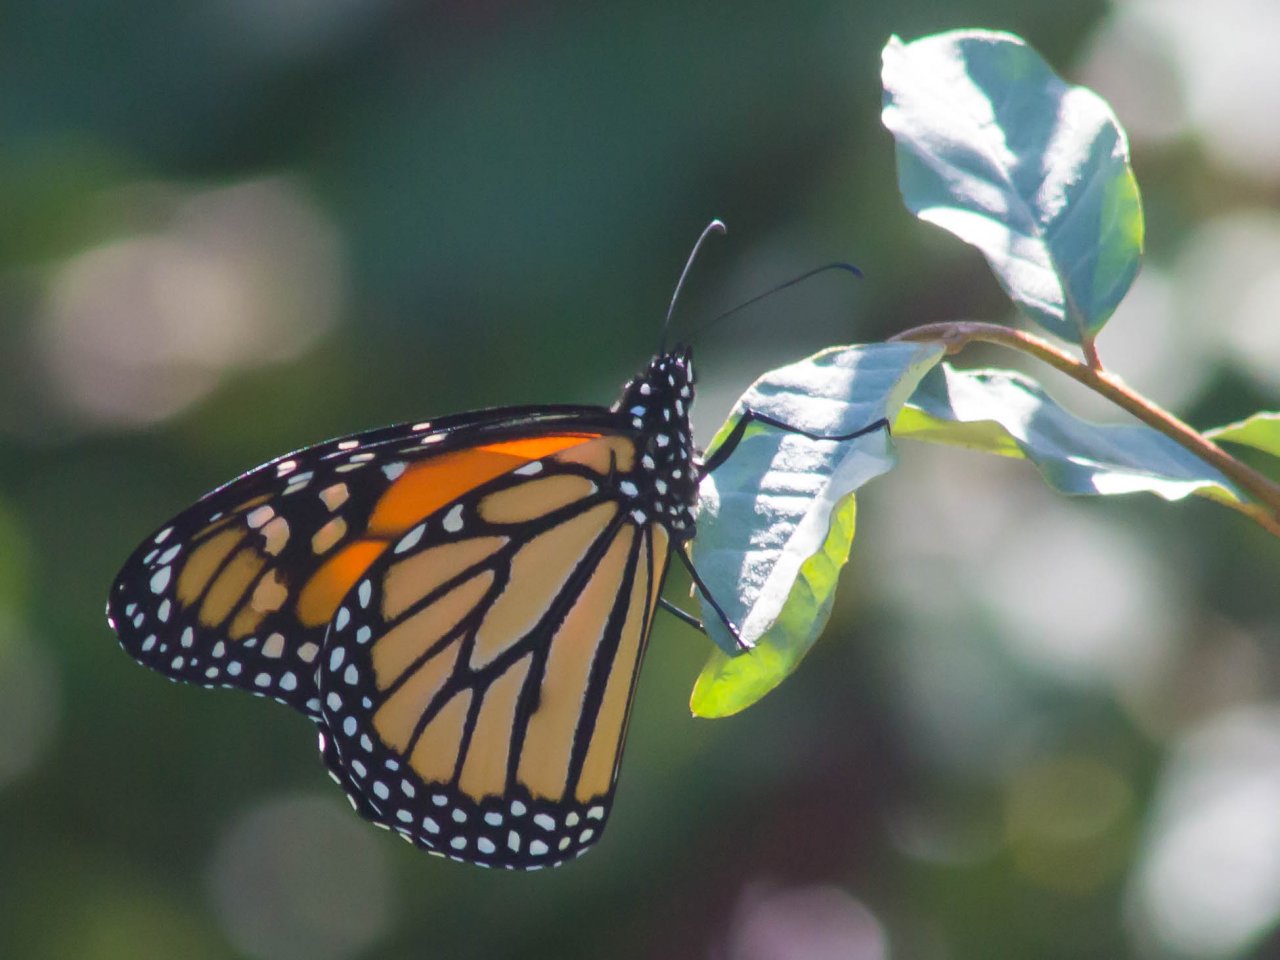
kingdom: Animalia
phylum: Arthropoda
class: Insecta
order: Lepidoptera
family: Nymphalidae
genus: Danaus
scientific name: Danaus plexippus
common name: Monarch
